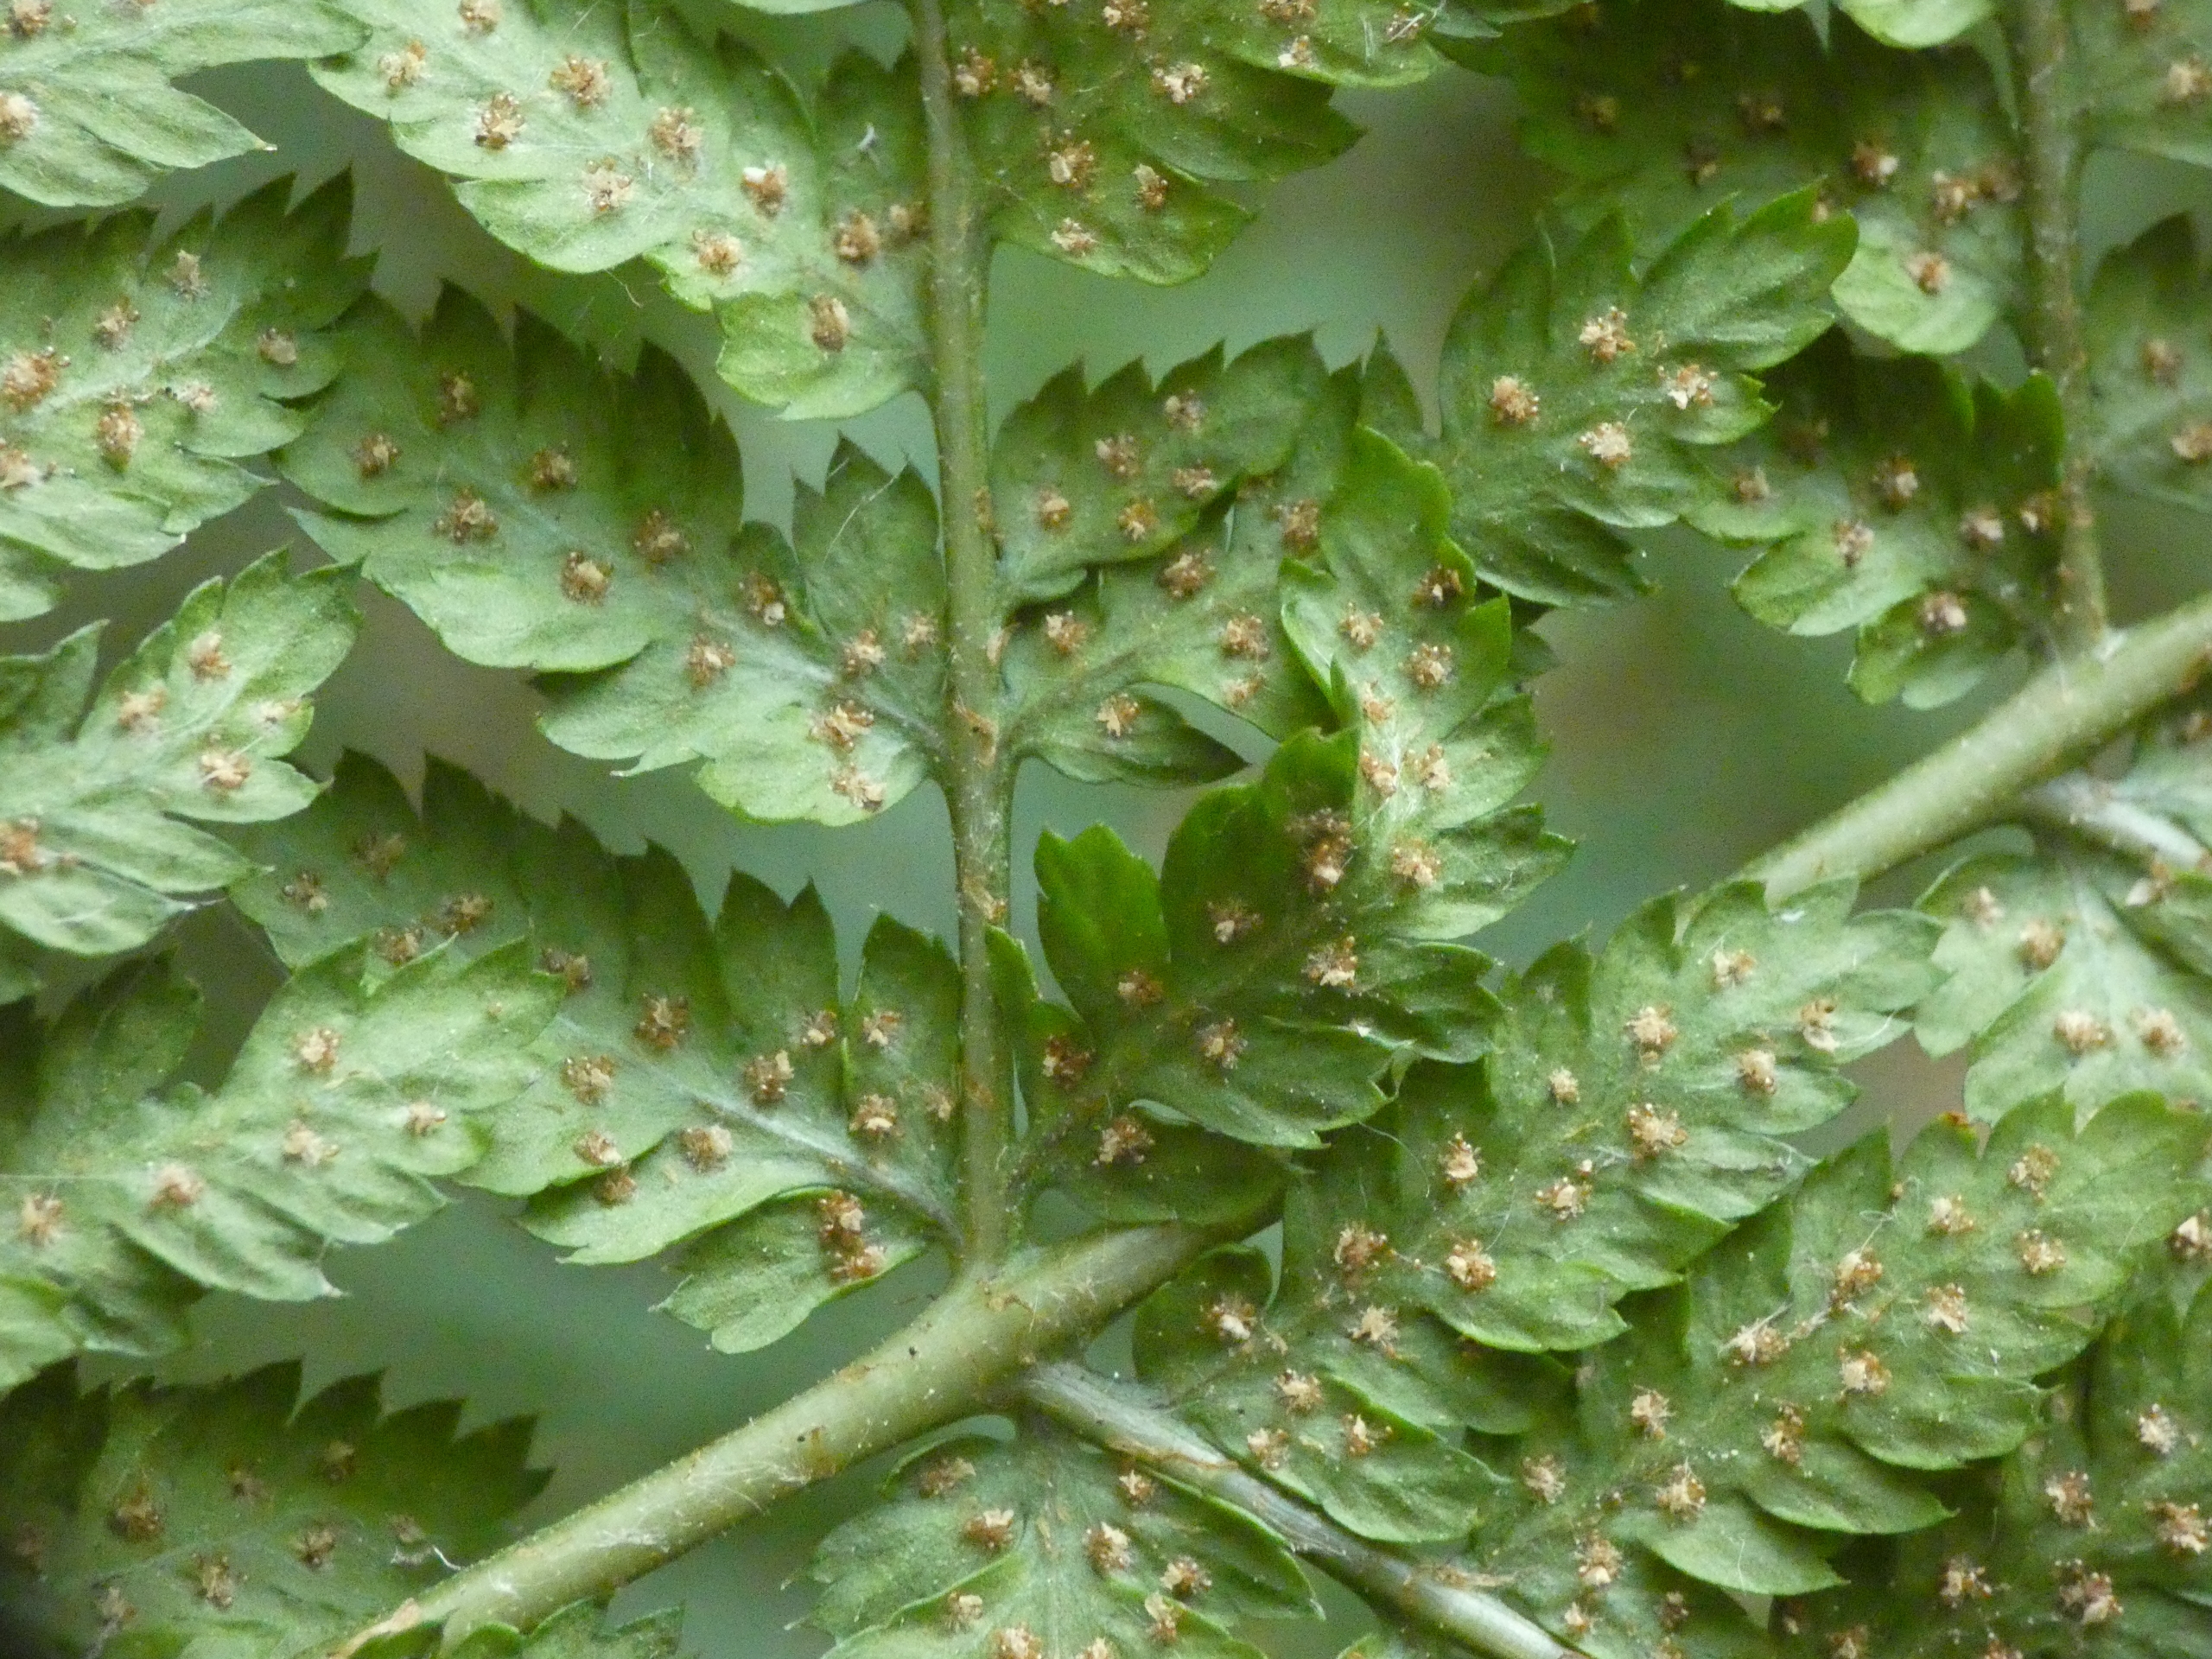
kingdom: Plantae
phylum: Tracheophyta
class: Polypodiopsida
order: Polypodiales
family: Dryopteridaceae
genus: Dryopteris
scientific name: Dryopteris dilatata
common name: Bredbladet mangeløv
